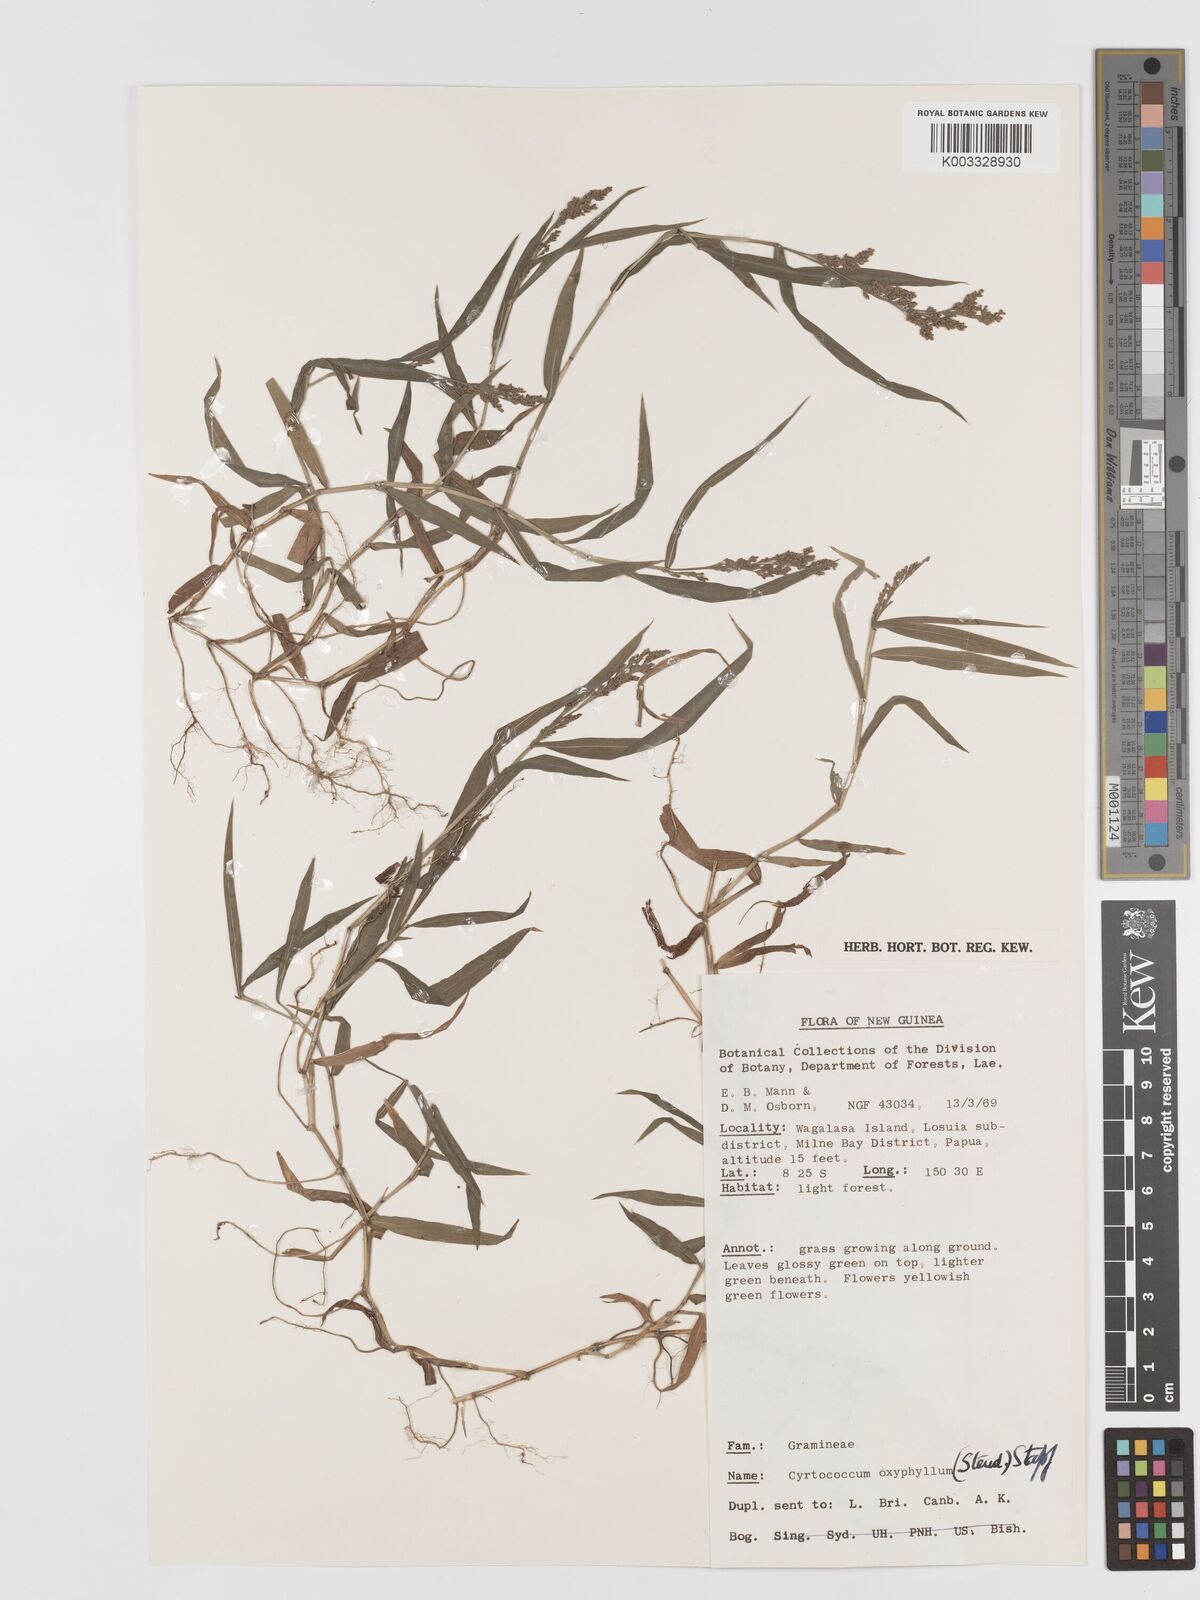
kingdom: Plantae
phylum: Tracheophyta
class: Liliopsida
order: Poales
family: Poaceae
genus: Cyrtococcum
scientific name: Cyrtococcum oxyphyllum
